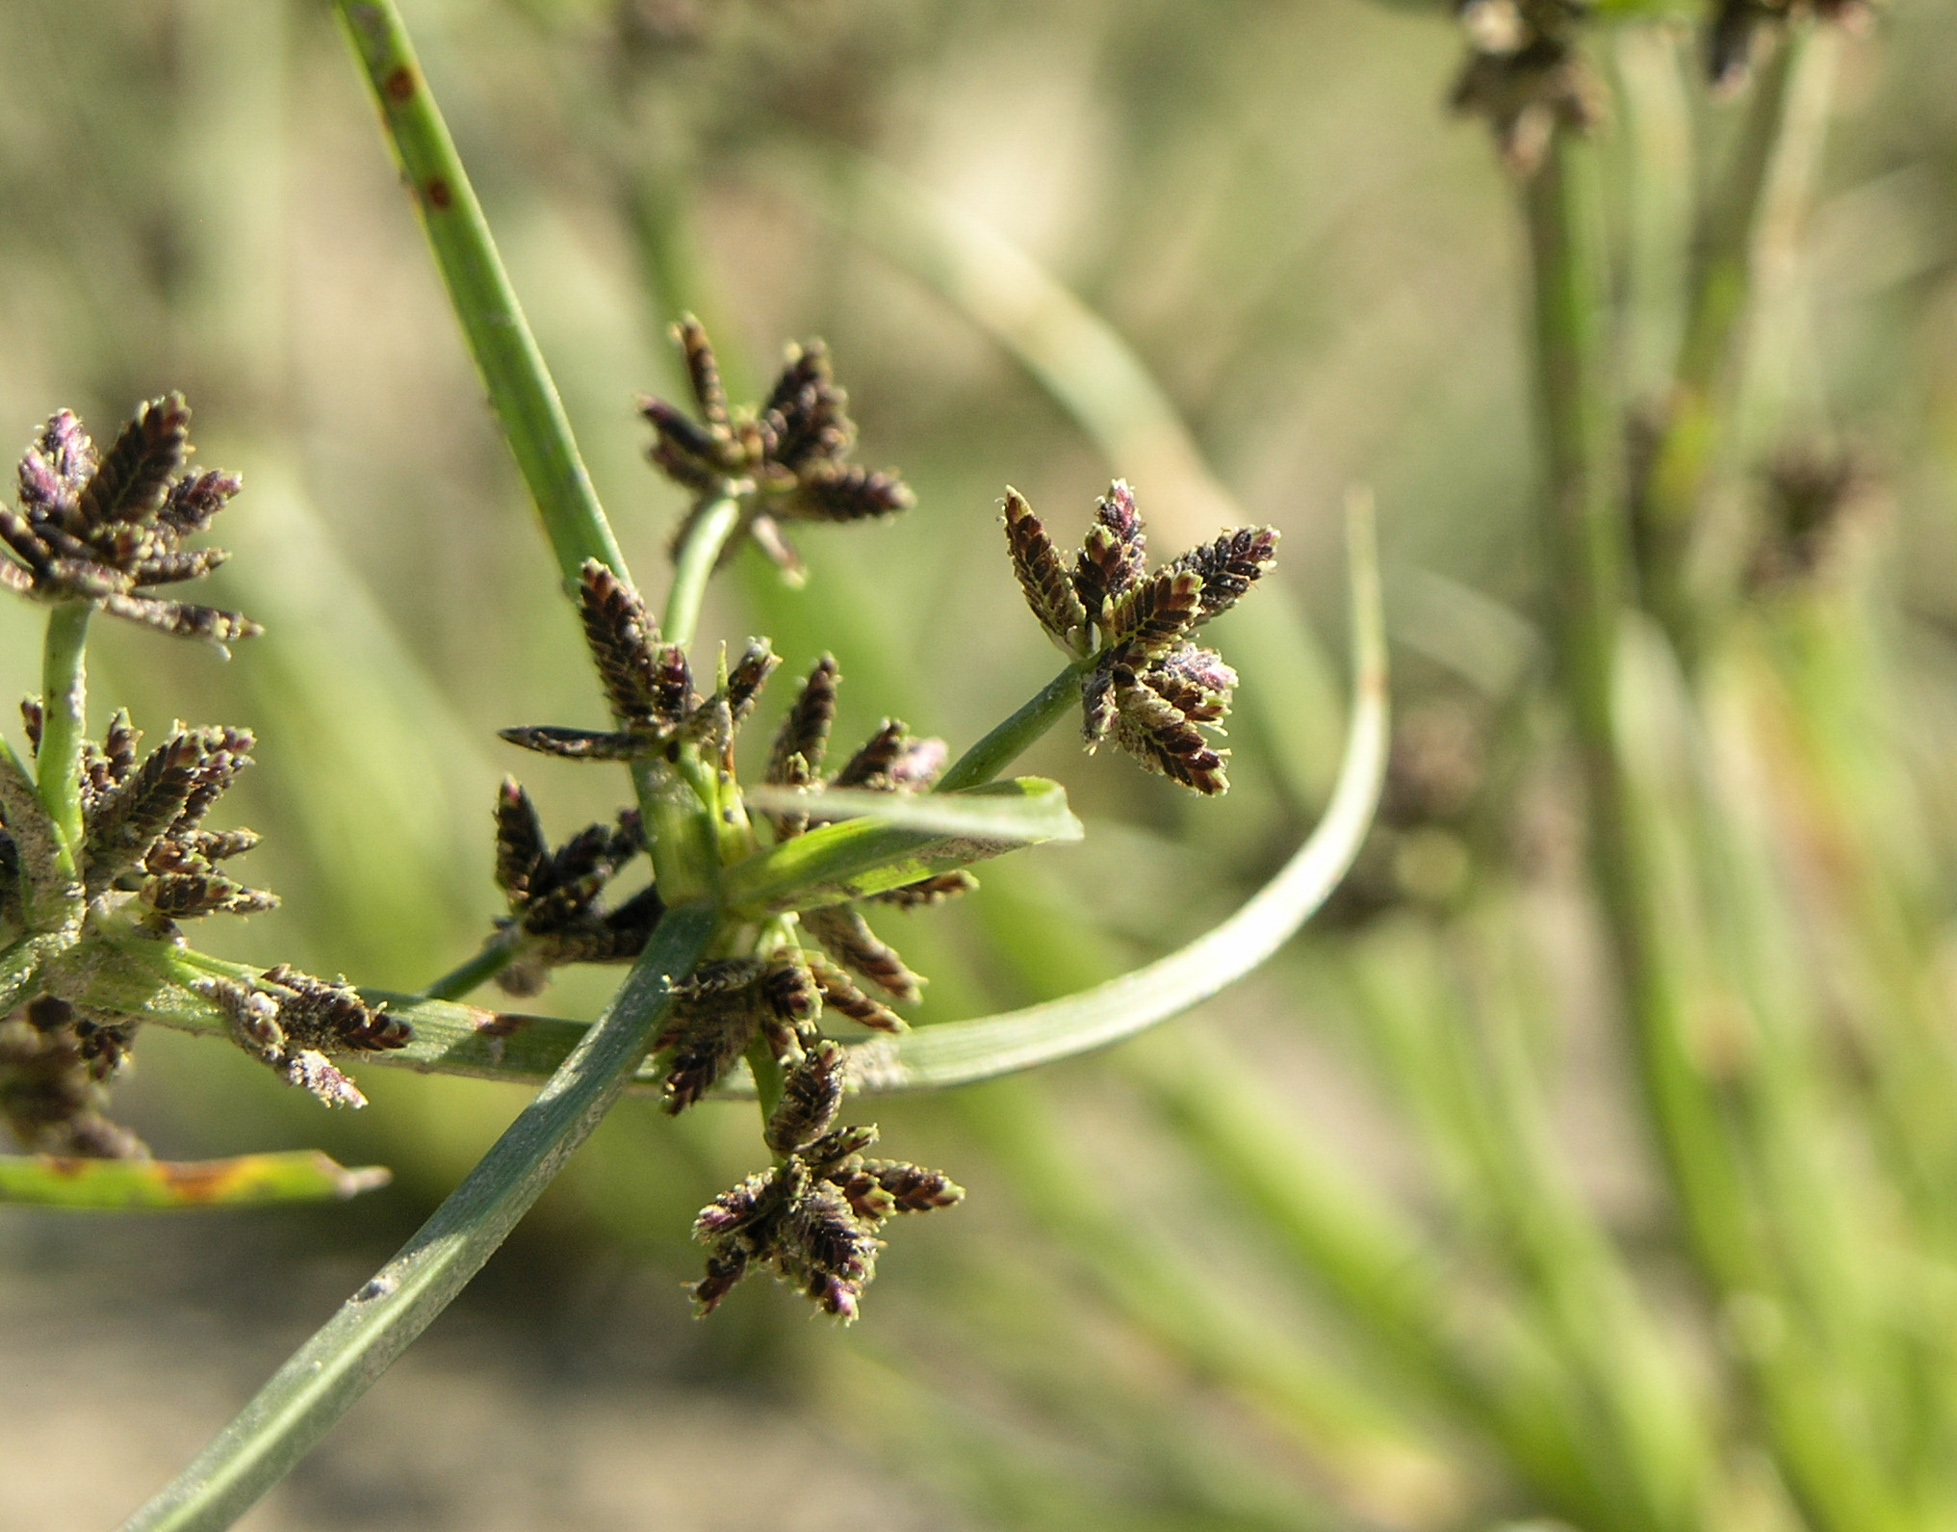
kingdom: Plantae
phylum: Tracheophyta
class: Liliopsida
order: Poales
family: Cyperaceae
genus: Cyperus
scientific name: Cyperus fuscus
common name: Brown galingale
